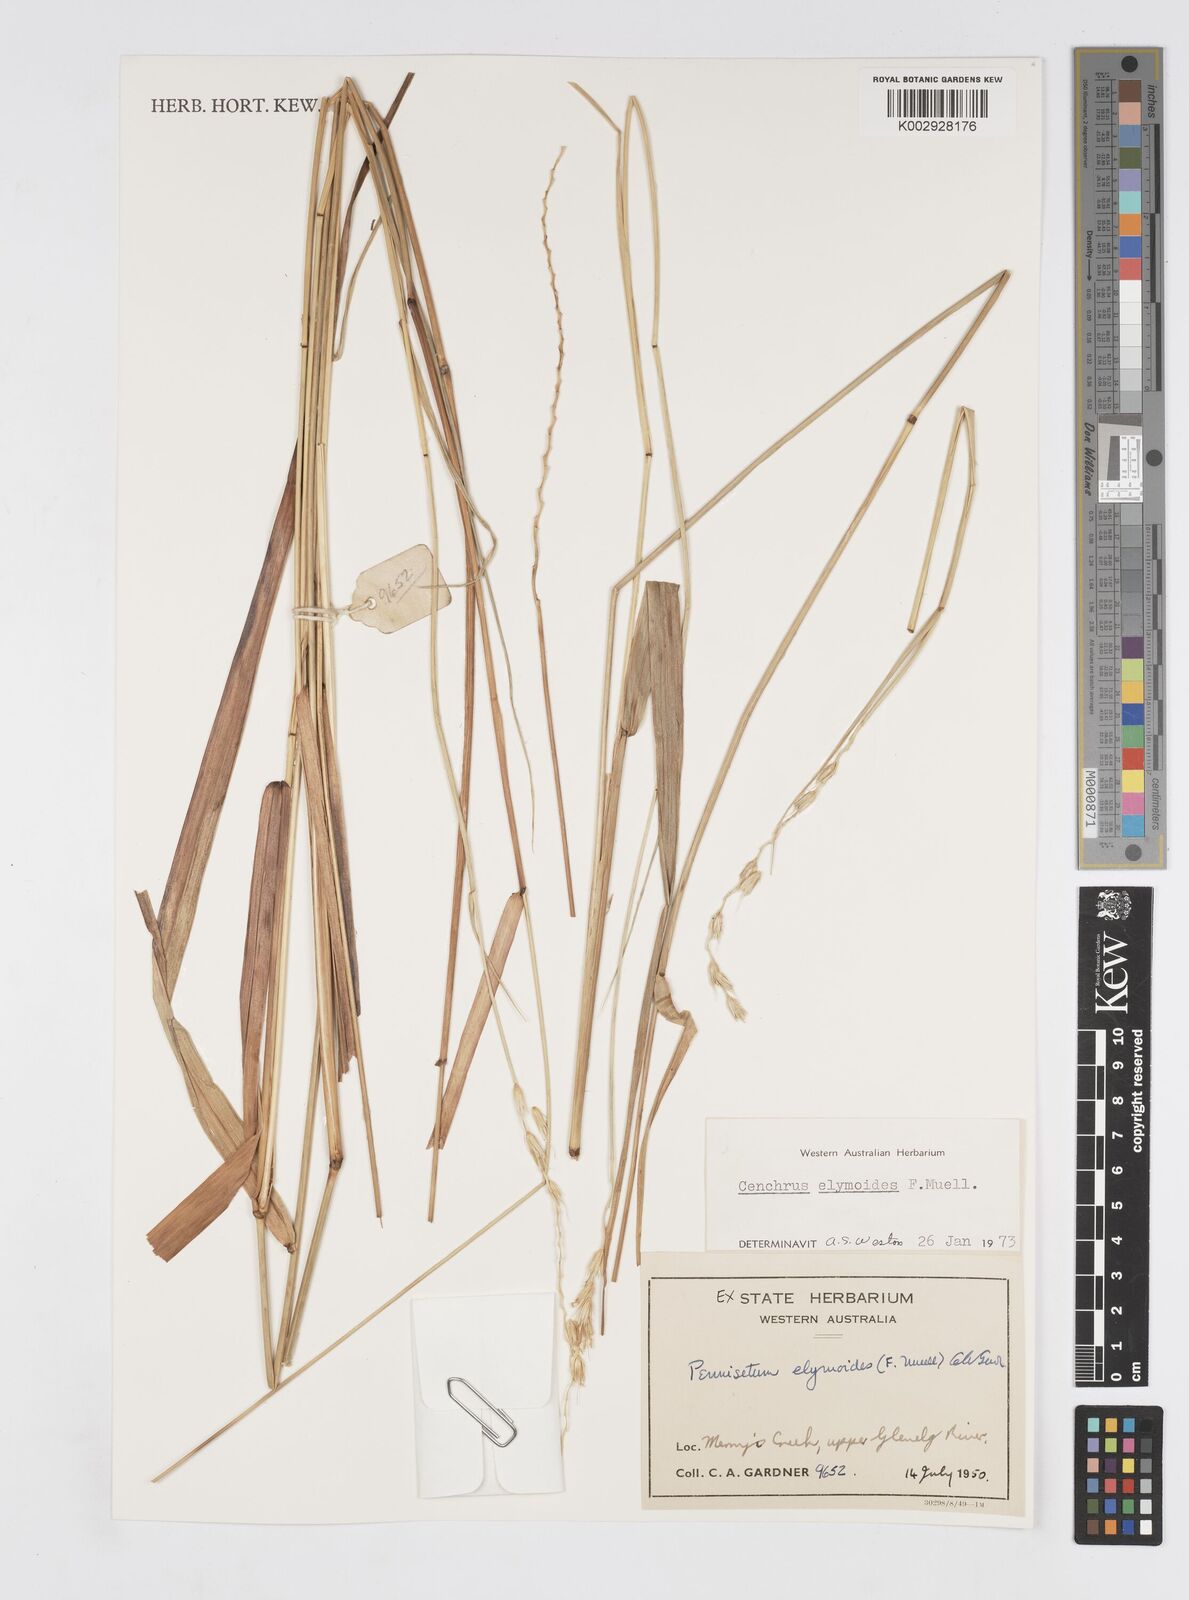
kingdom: Plantae
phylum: Tracheophyta
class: Liliopsida
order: Poales
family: Poaceae
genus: Cenchrus
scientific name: Cenchrus elymoides
